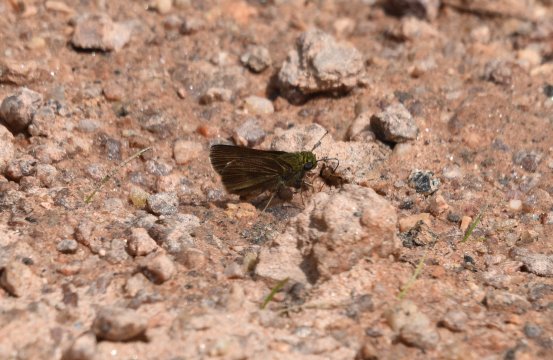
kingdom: Animalia
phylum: Arthropoda
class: Insecta
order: Lepidoptera
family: Hesperiidae
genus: Euphyes
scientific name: Euphyes vestris
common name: Dun Skipper
